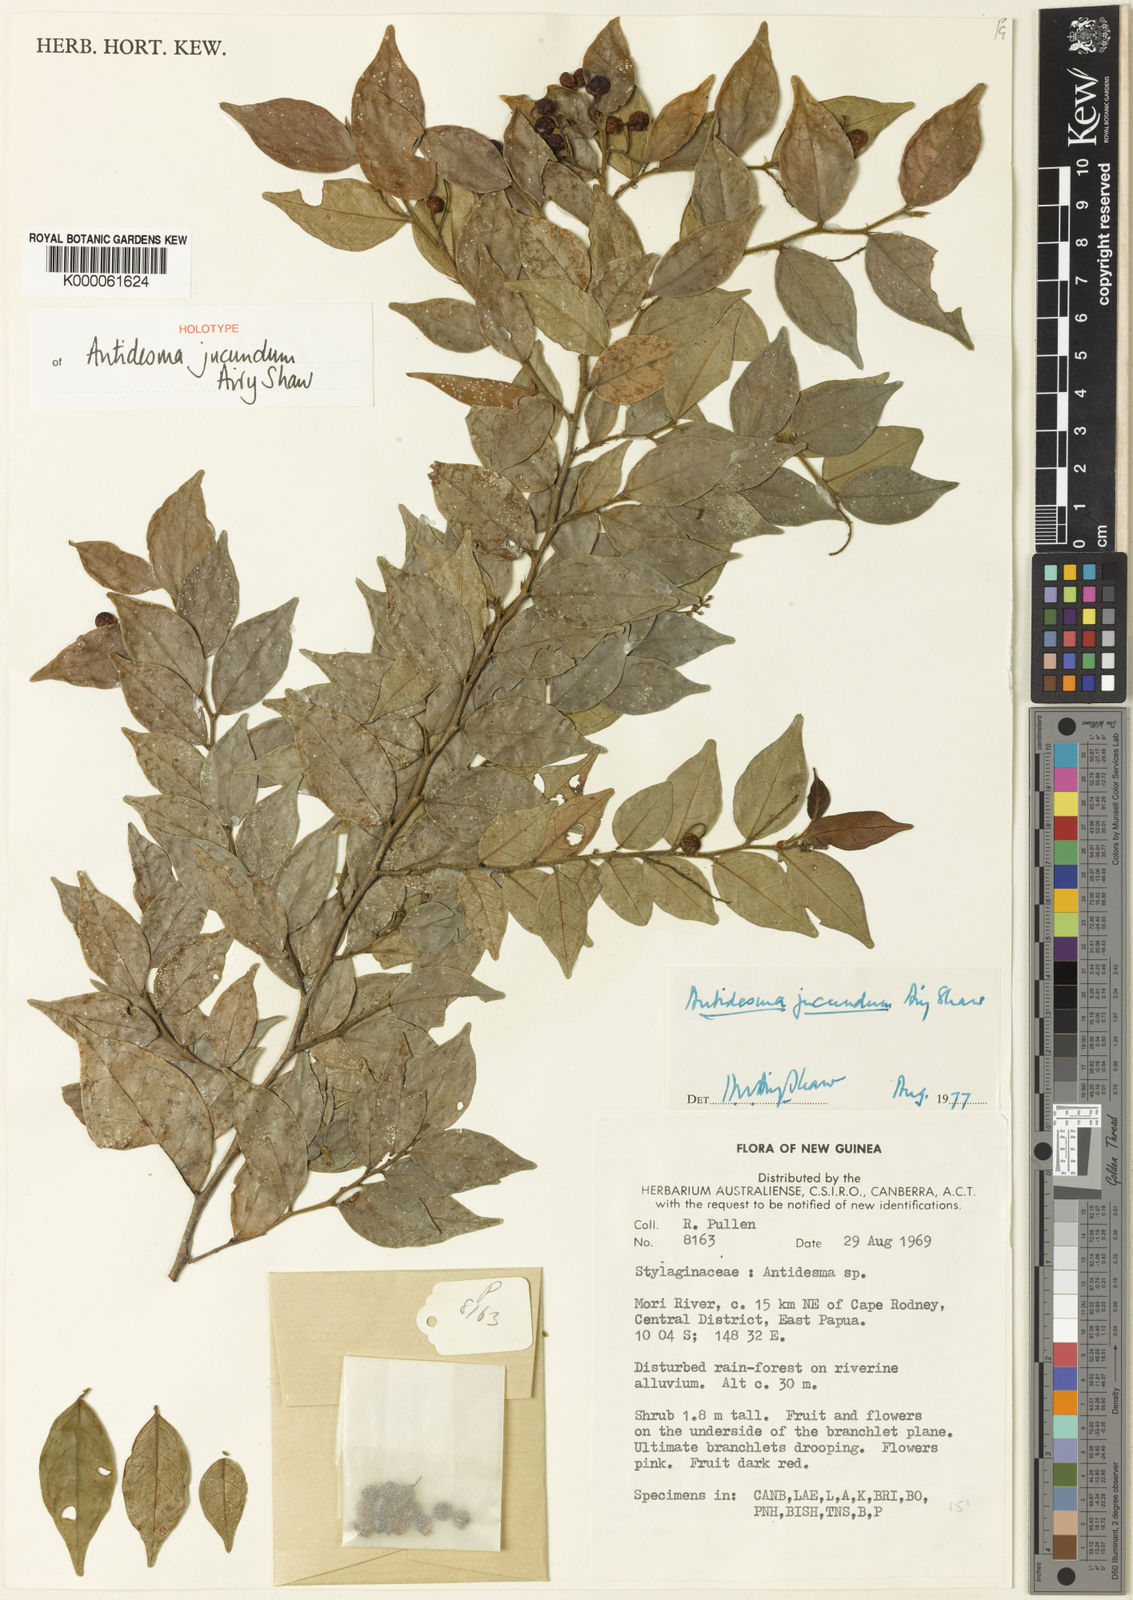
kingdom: Plantae
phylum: Tracheophyta
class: Magnoliopsida
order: Malpighiales
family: Phyllanthaceae
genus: Antidesma
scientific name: Antidesma jucundum
